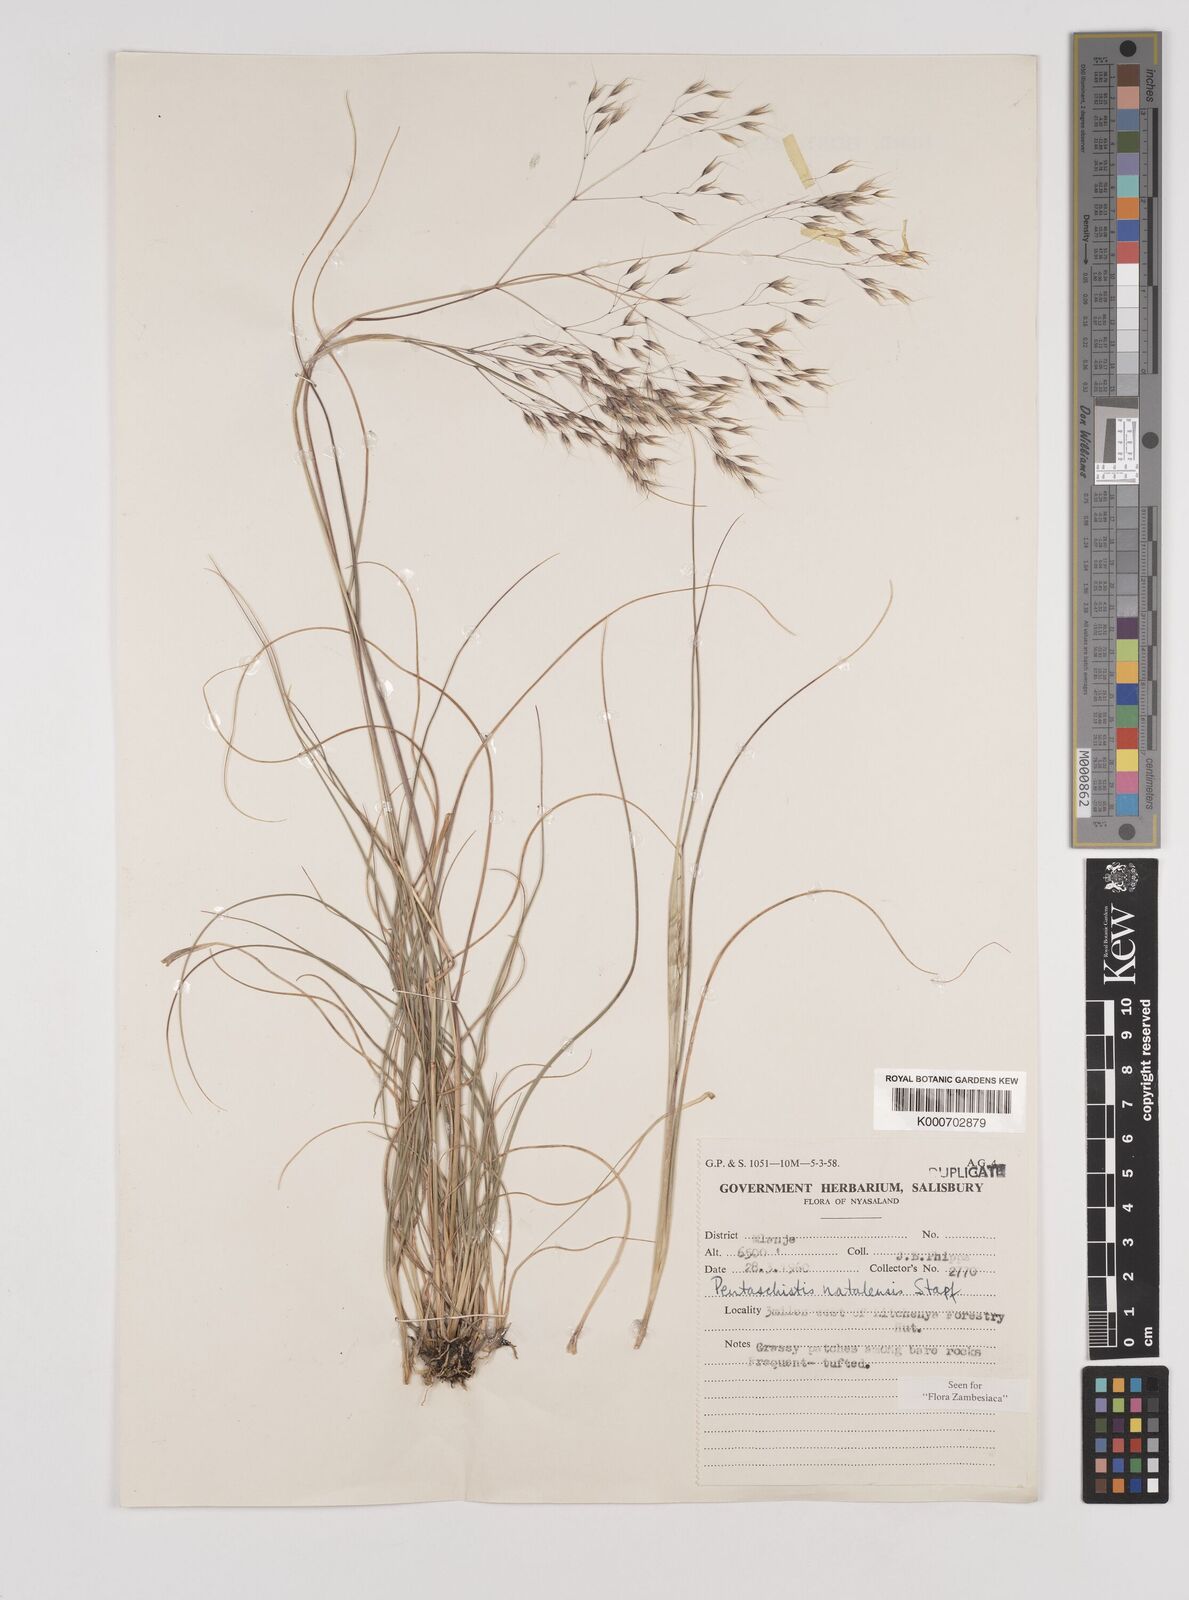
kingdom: Plantae
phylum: Tracheophyta
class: Liliopsida
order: Poales
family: Poaceae
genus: Pentameris
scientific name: Pentameris natalensis
